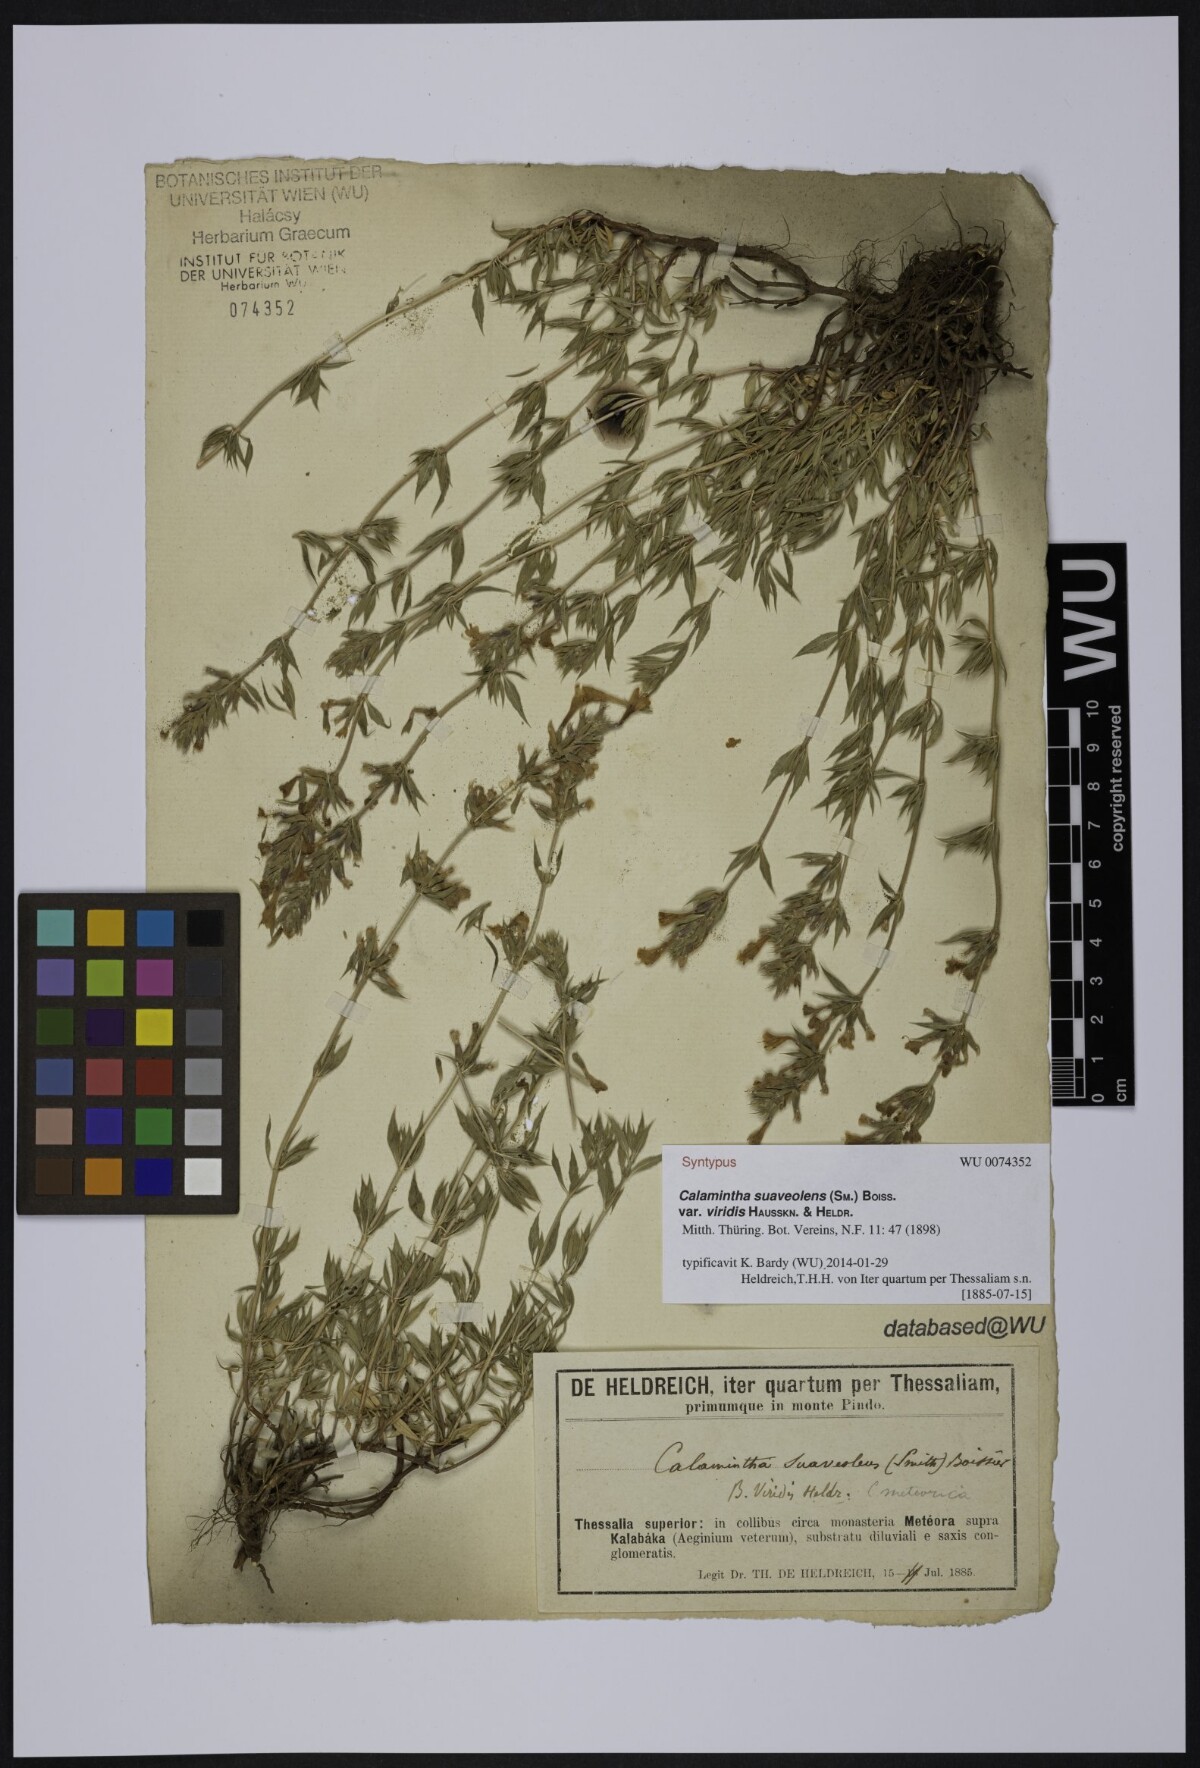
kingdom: Plantae
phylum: Tracheophyta
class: Magnoliopsida
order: Lamiales
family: Lamiaceae
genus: Clinopodium
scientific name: Clinopodium suaveolens
